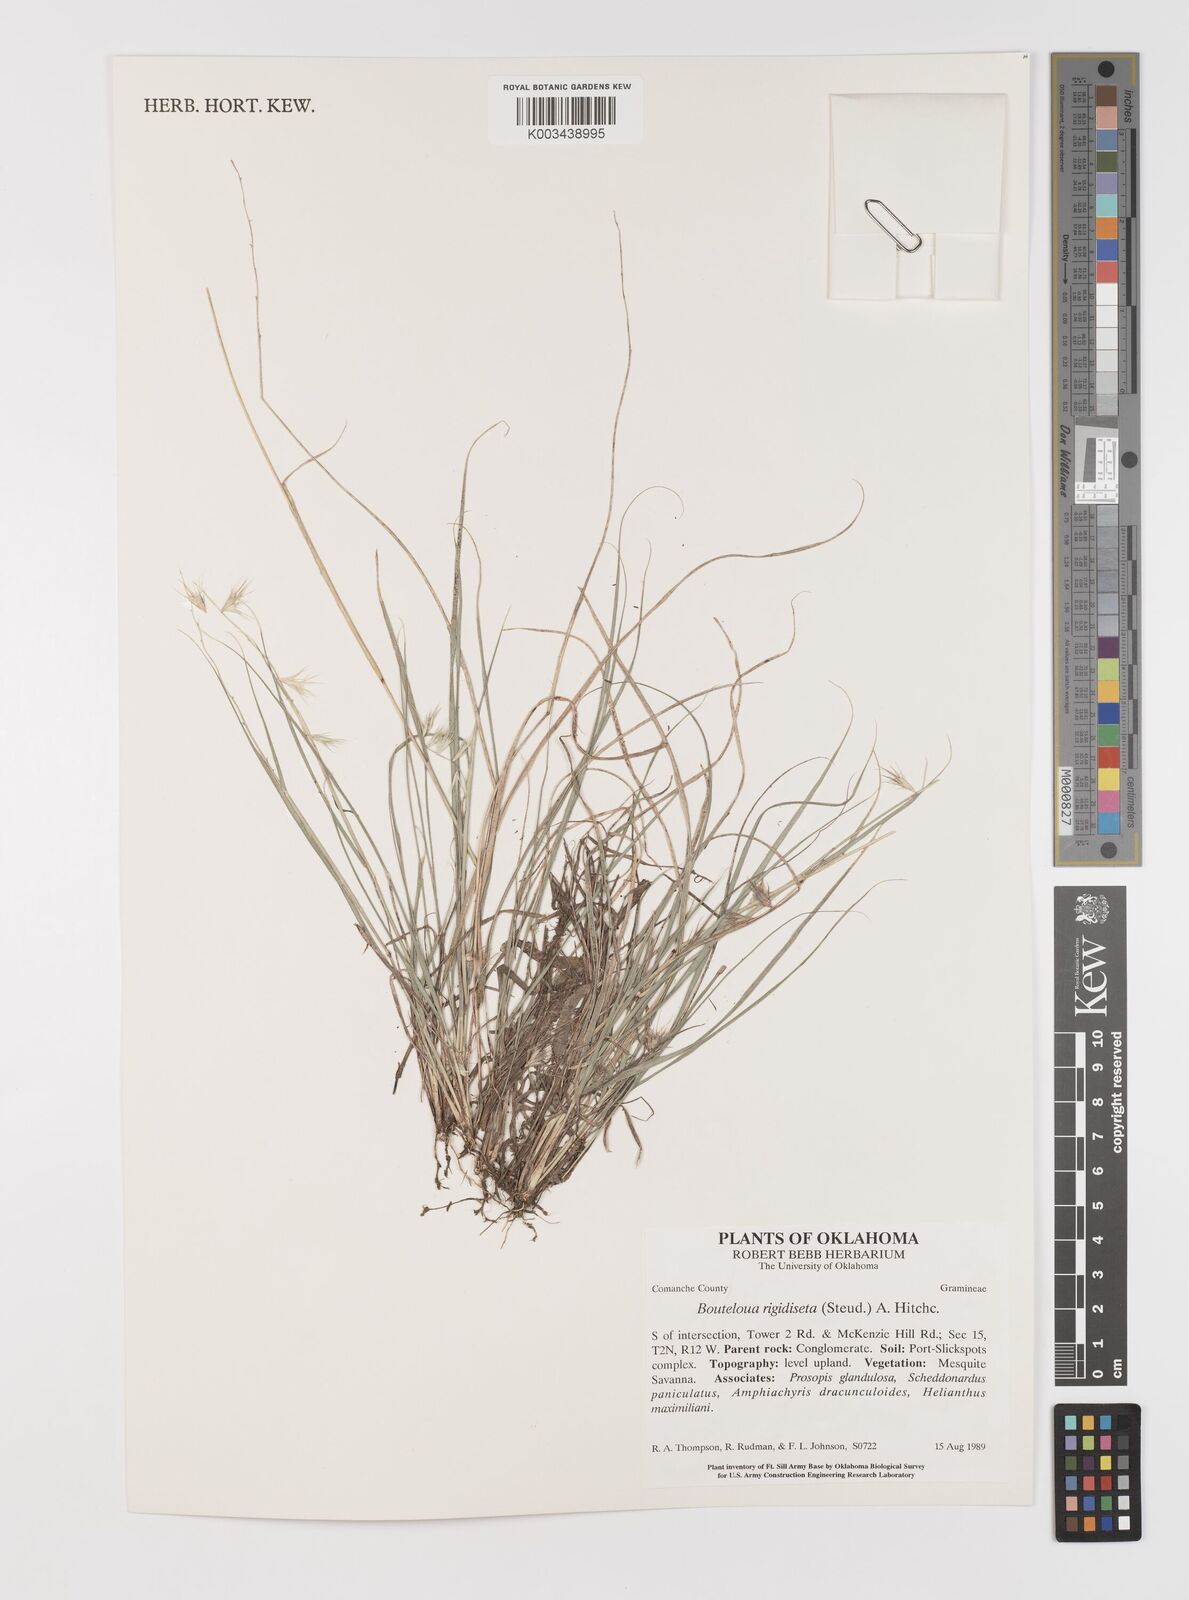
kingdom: Plantae
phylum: Tracheophyta
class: Liliopsida
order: Poales
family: Poaceae
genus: Bouteloua
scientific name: Bouteloua rigidiseta
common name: Texas grama
